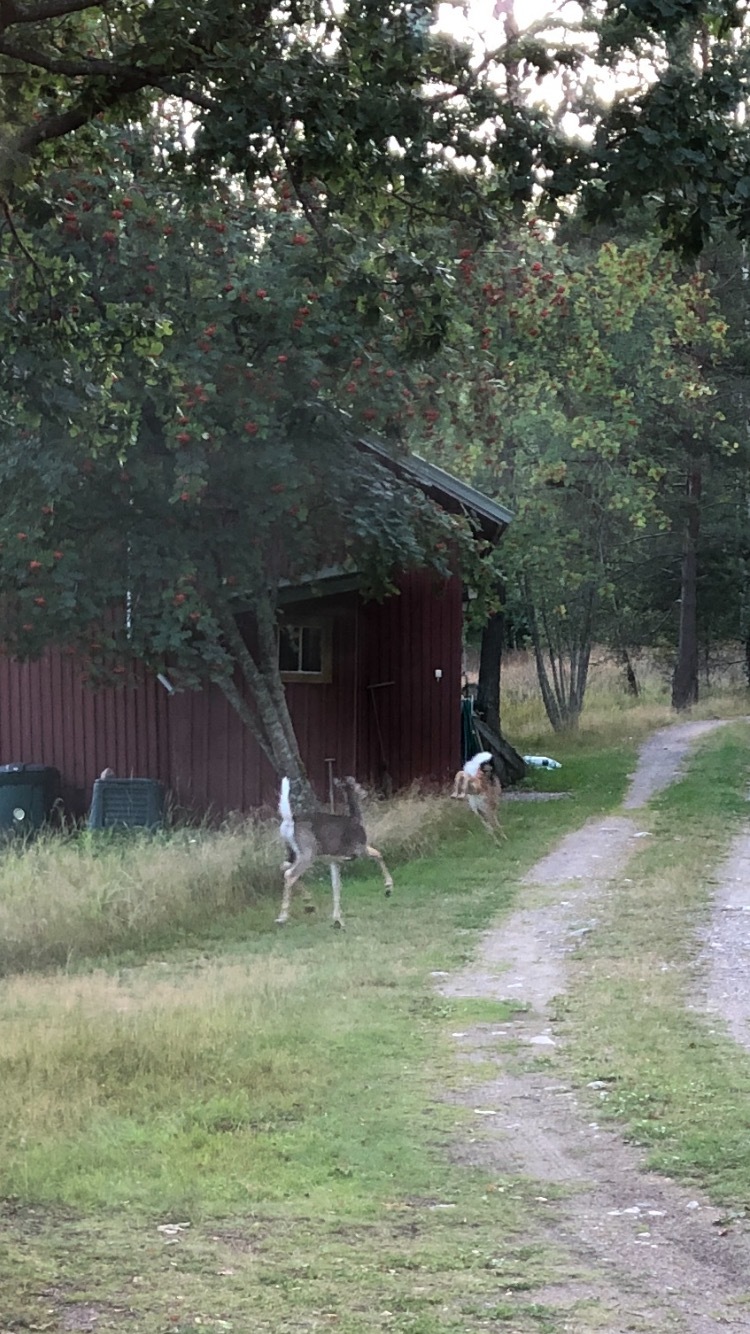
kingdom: Animalia
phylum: Chordata
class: Mammalia
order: Artiodactyla
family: Cervidae
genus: Odocoileus
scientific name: Odocoileus virginianus
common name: White-tailed deer
